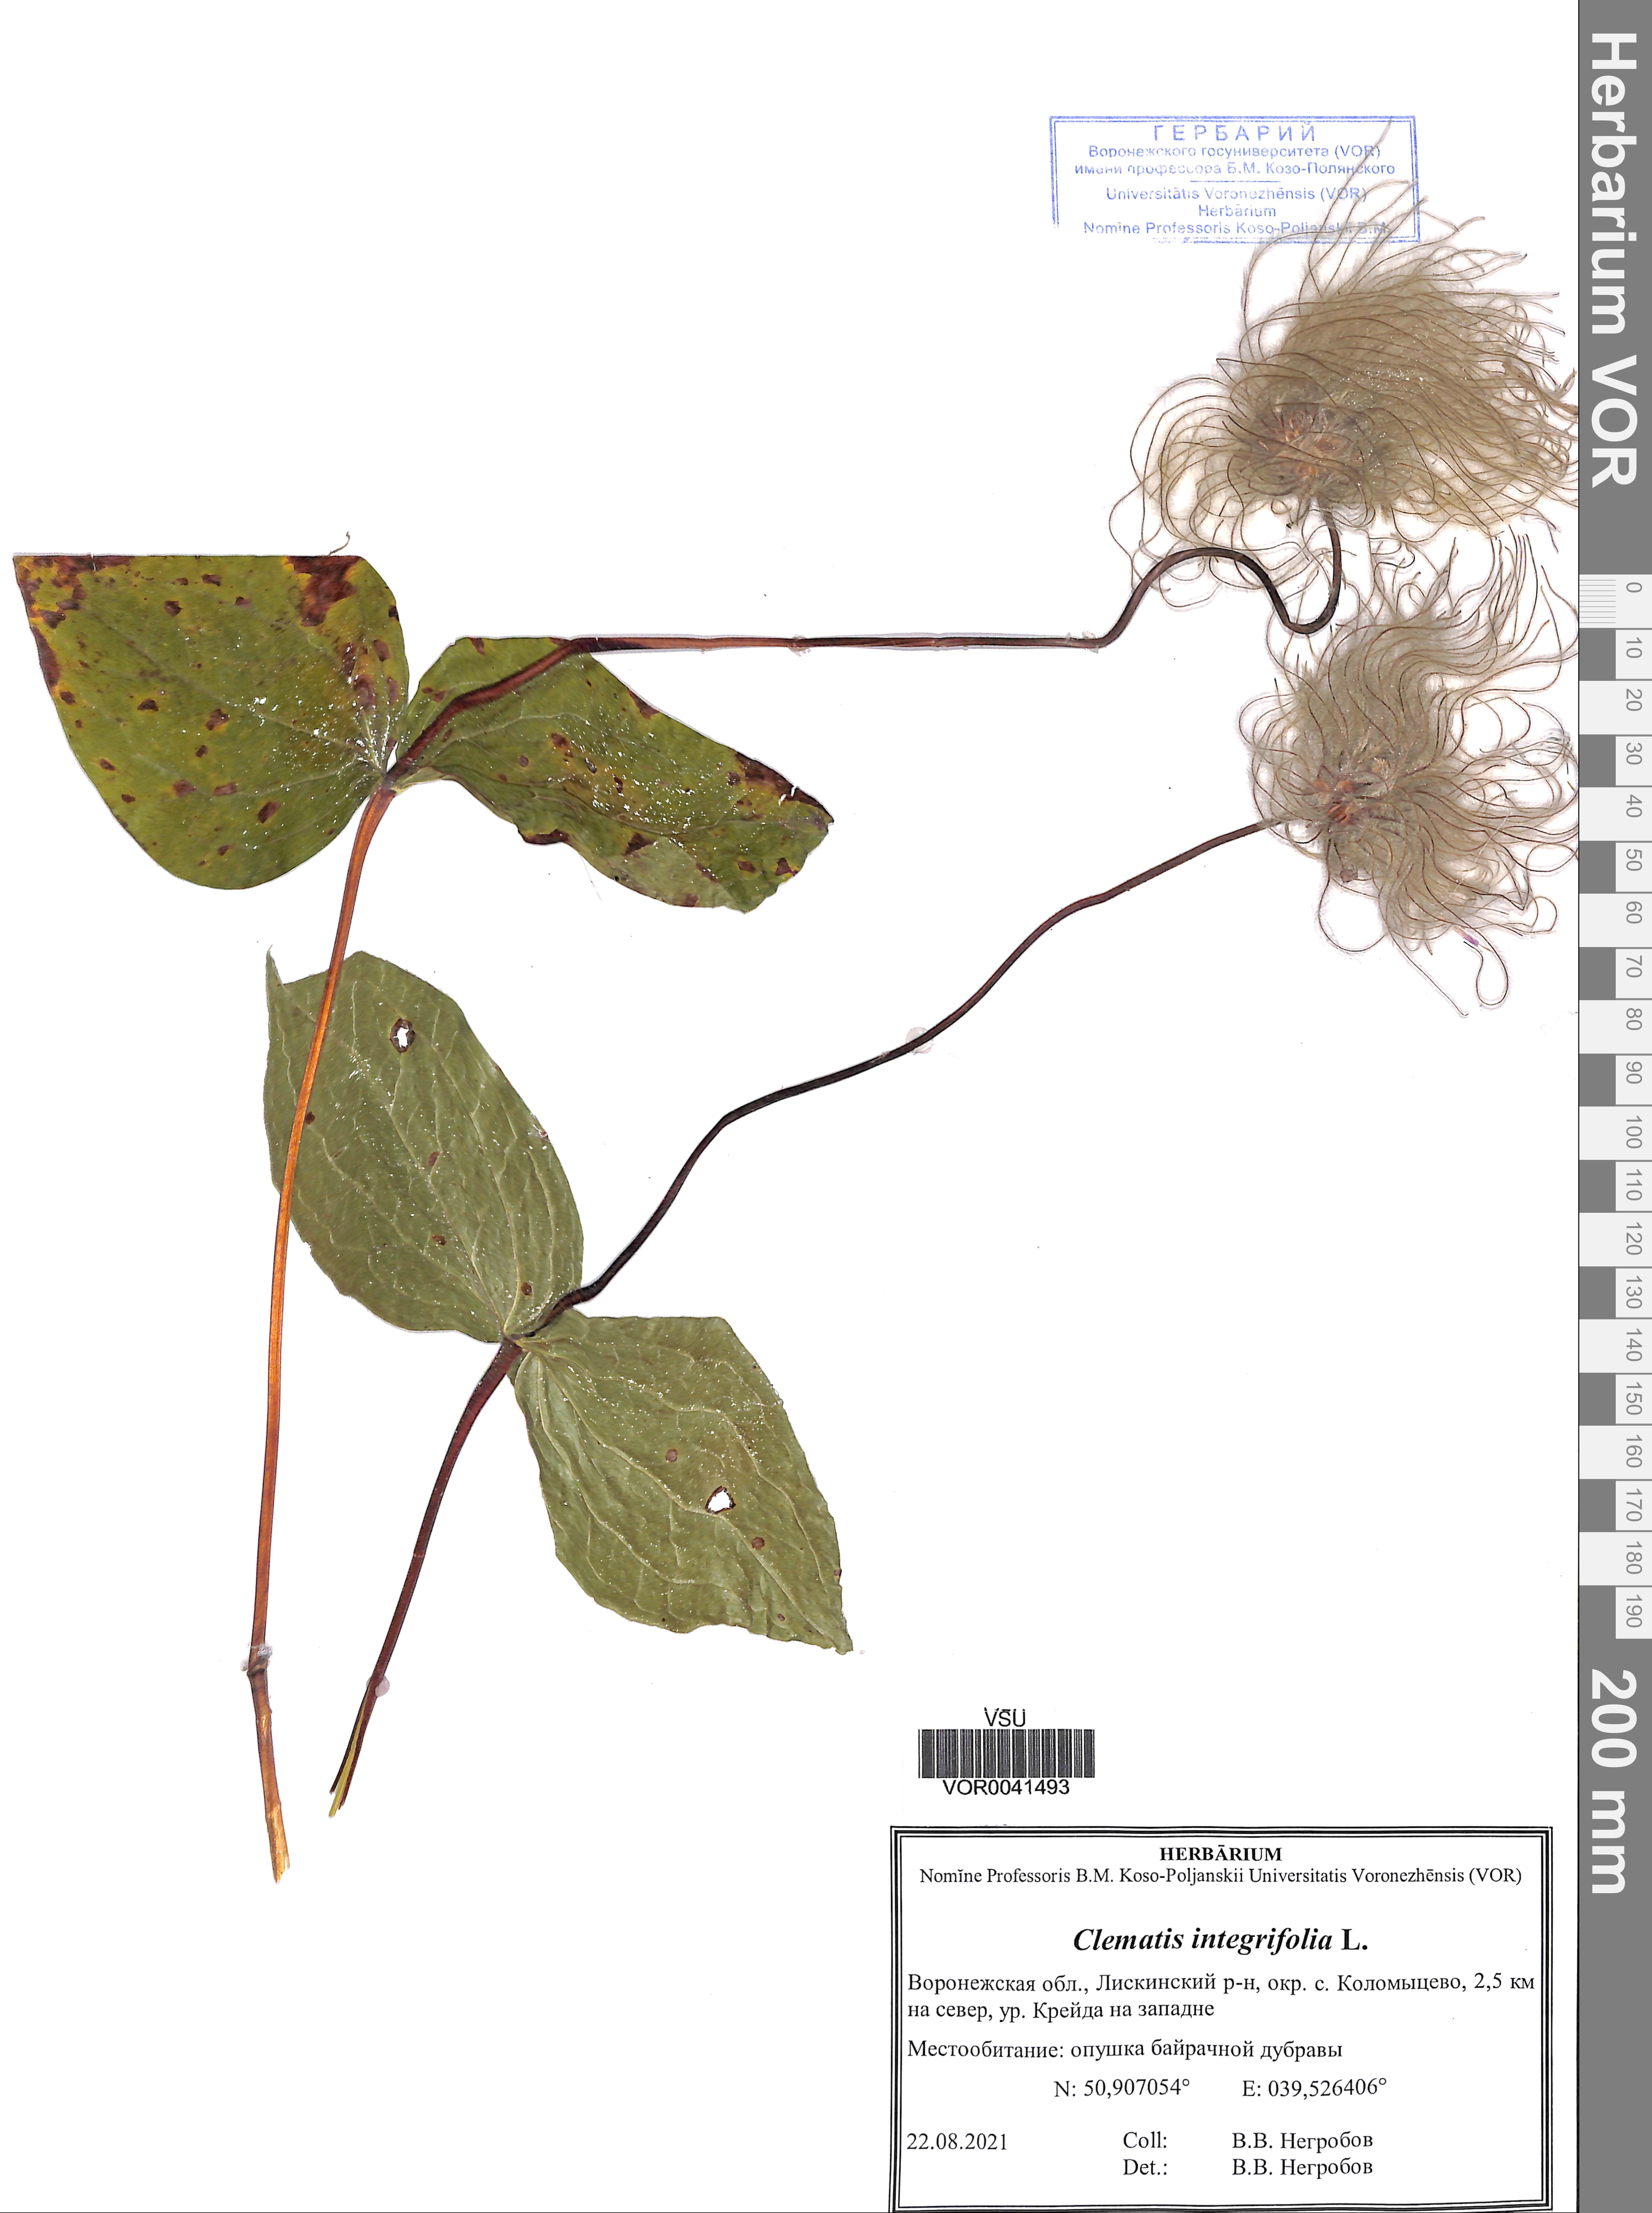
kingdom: Plantae
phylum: Tracheophyta
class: Magnoliopsida
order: Ranunculales
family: Ranunculaceae
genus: Clematis
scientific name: Clematis integrifolia
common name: Solitary clematis
